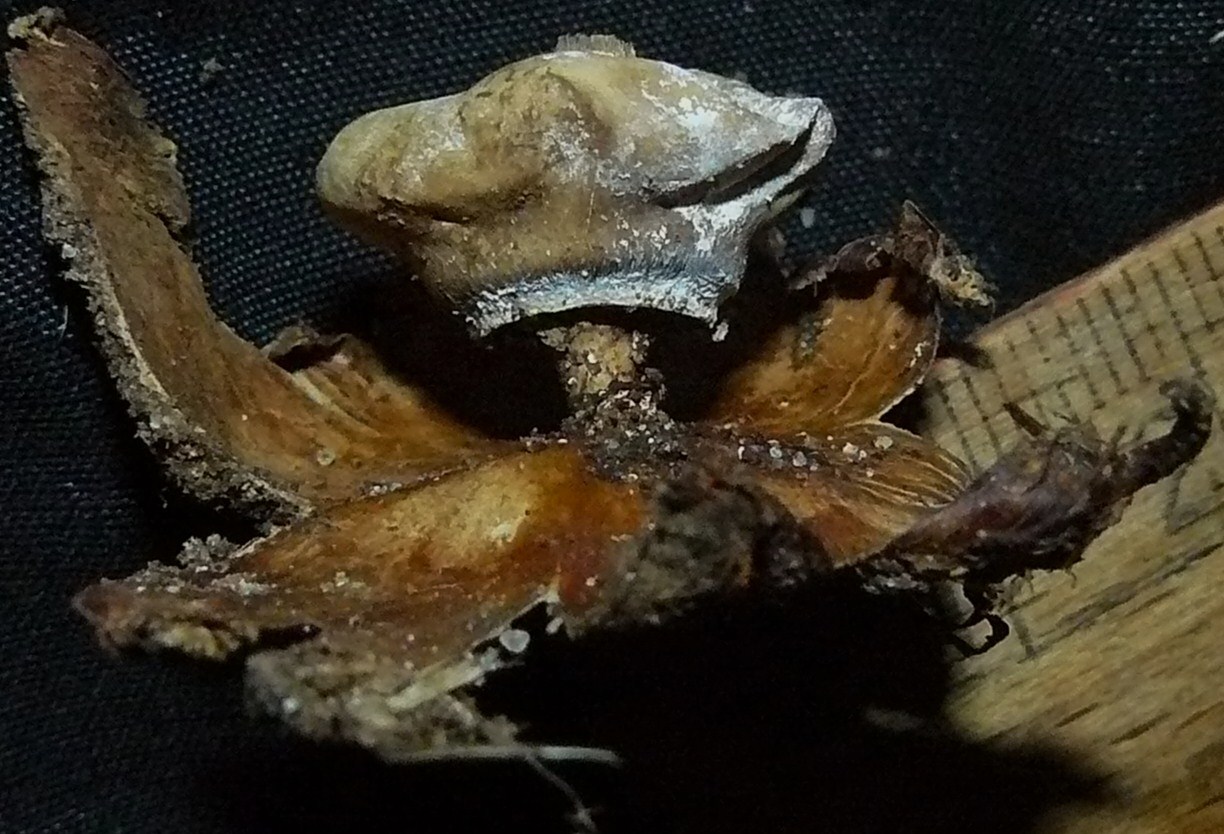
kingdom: Fungi
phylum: Basidiomycota
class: Agaricomycetes
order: Geastrales
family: Geastraceae
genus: Geastrum
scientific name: Geastrum striatum
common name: krave-stjernebold
